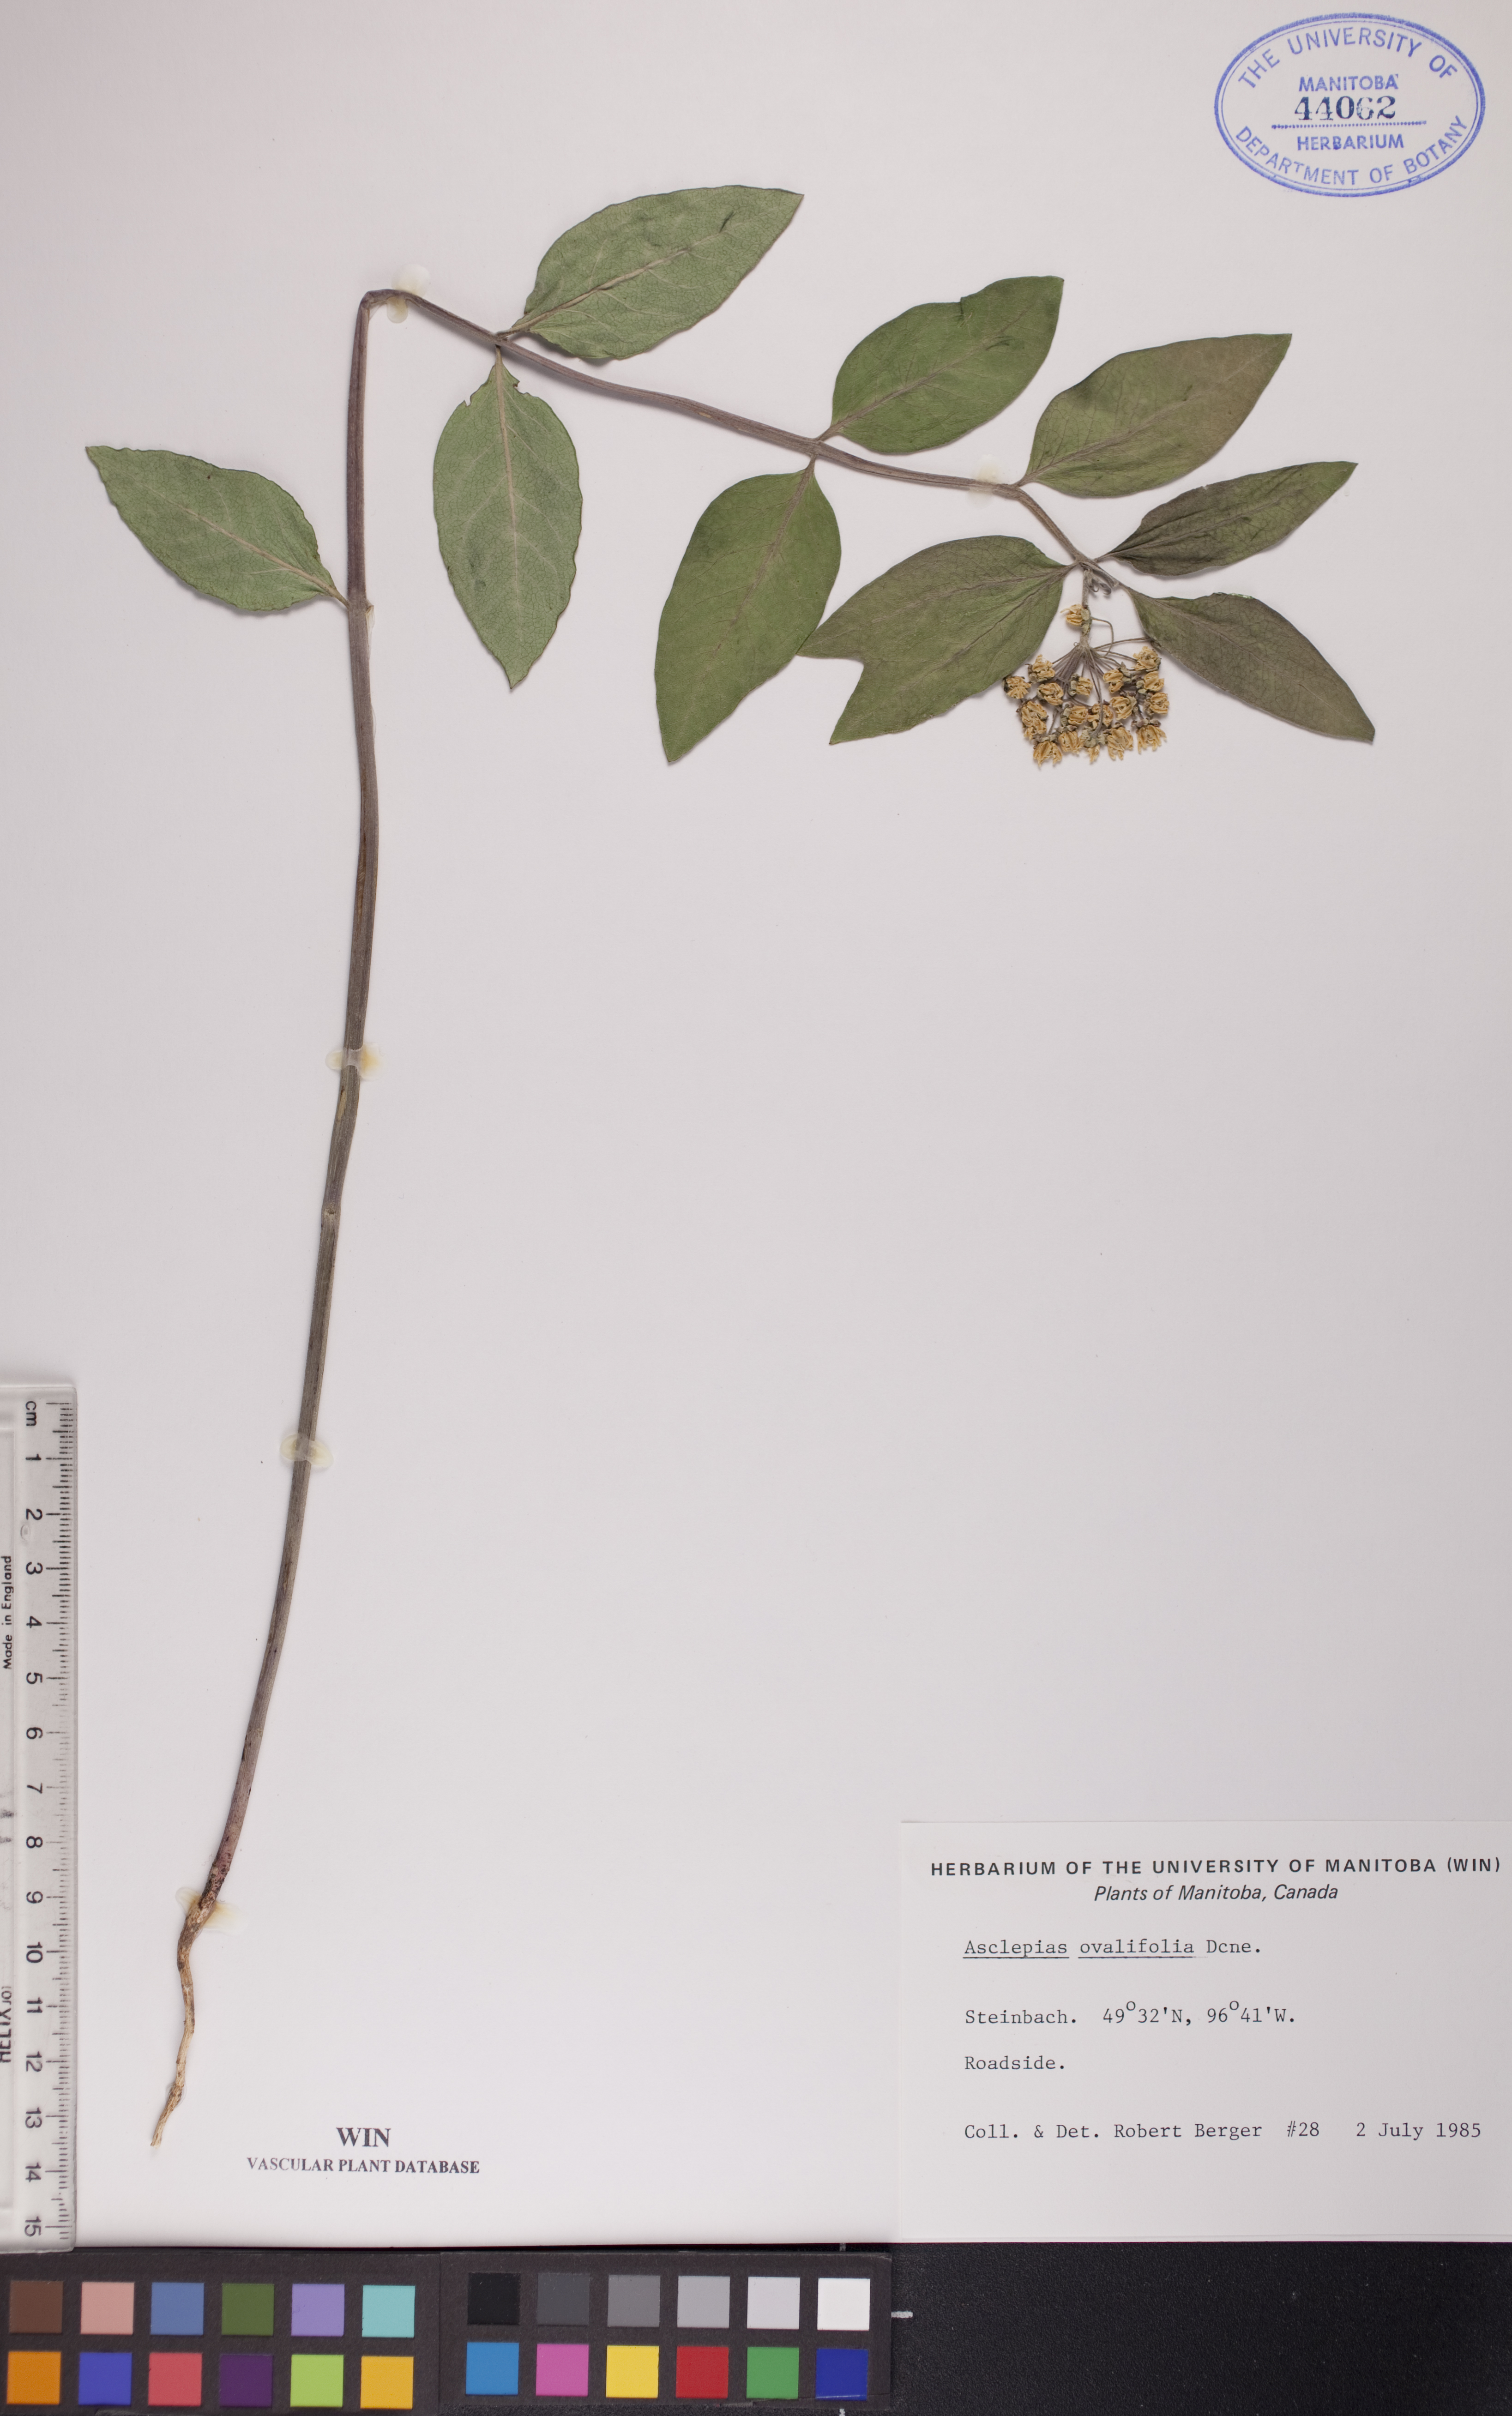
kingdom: Plantae
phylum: Tracheophyta
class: Magnoliopsida
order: Gentianales
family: Apocynaceae
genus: Asclepias
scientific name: Asclepias ovalifolia
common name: Dwarf milkweed
